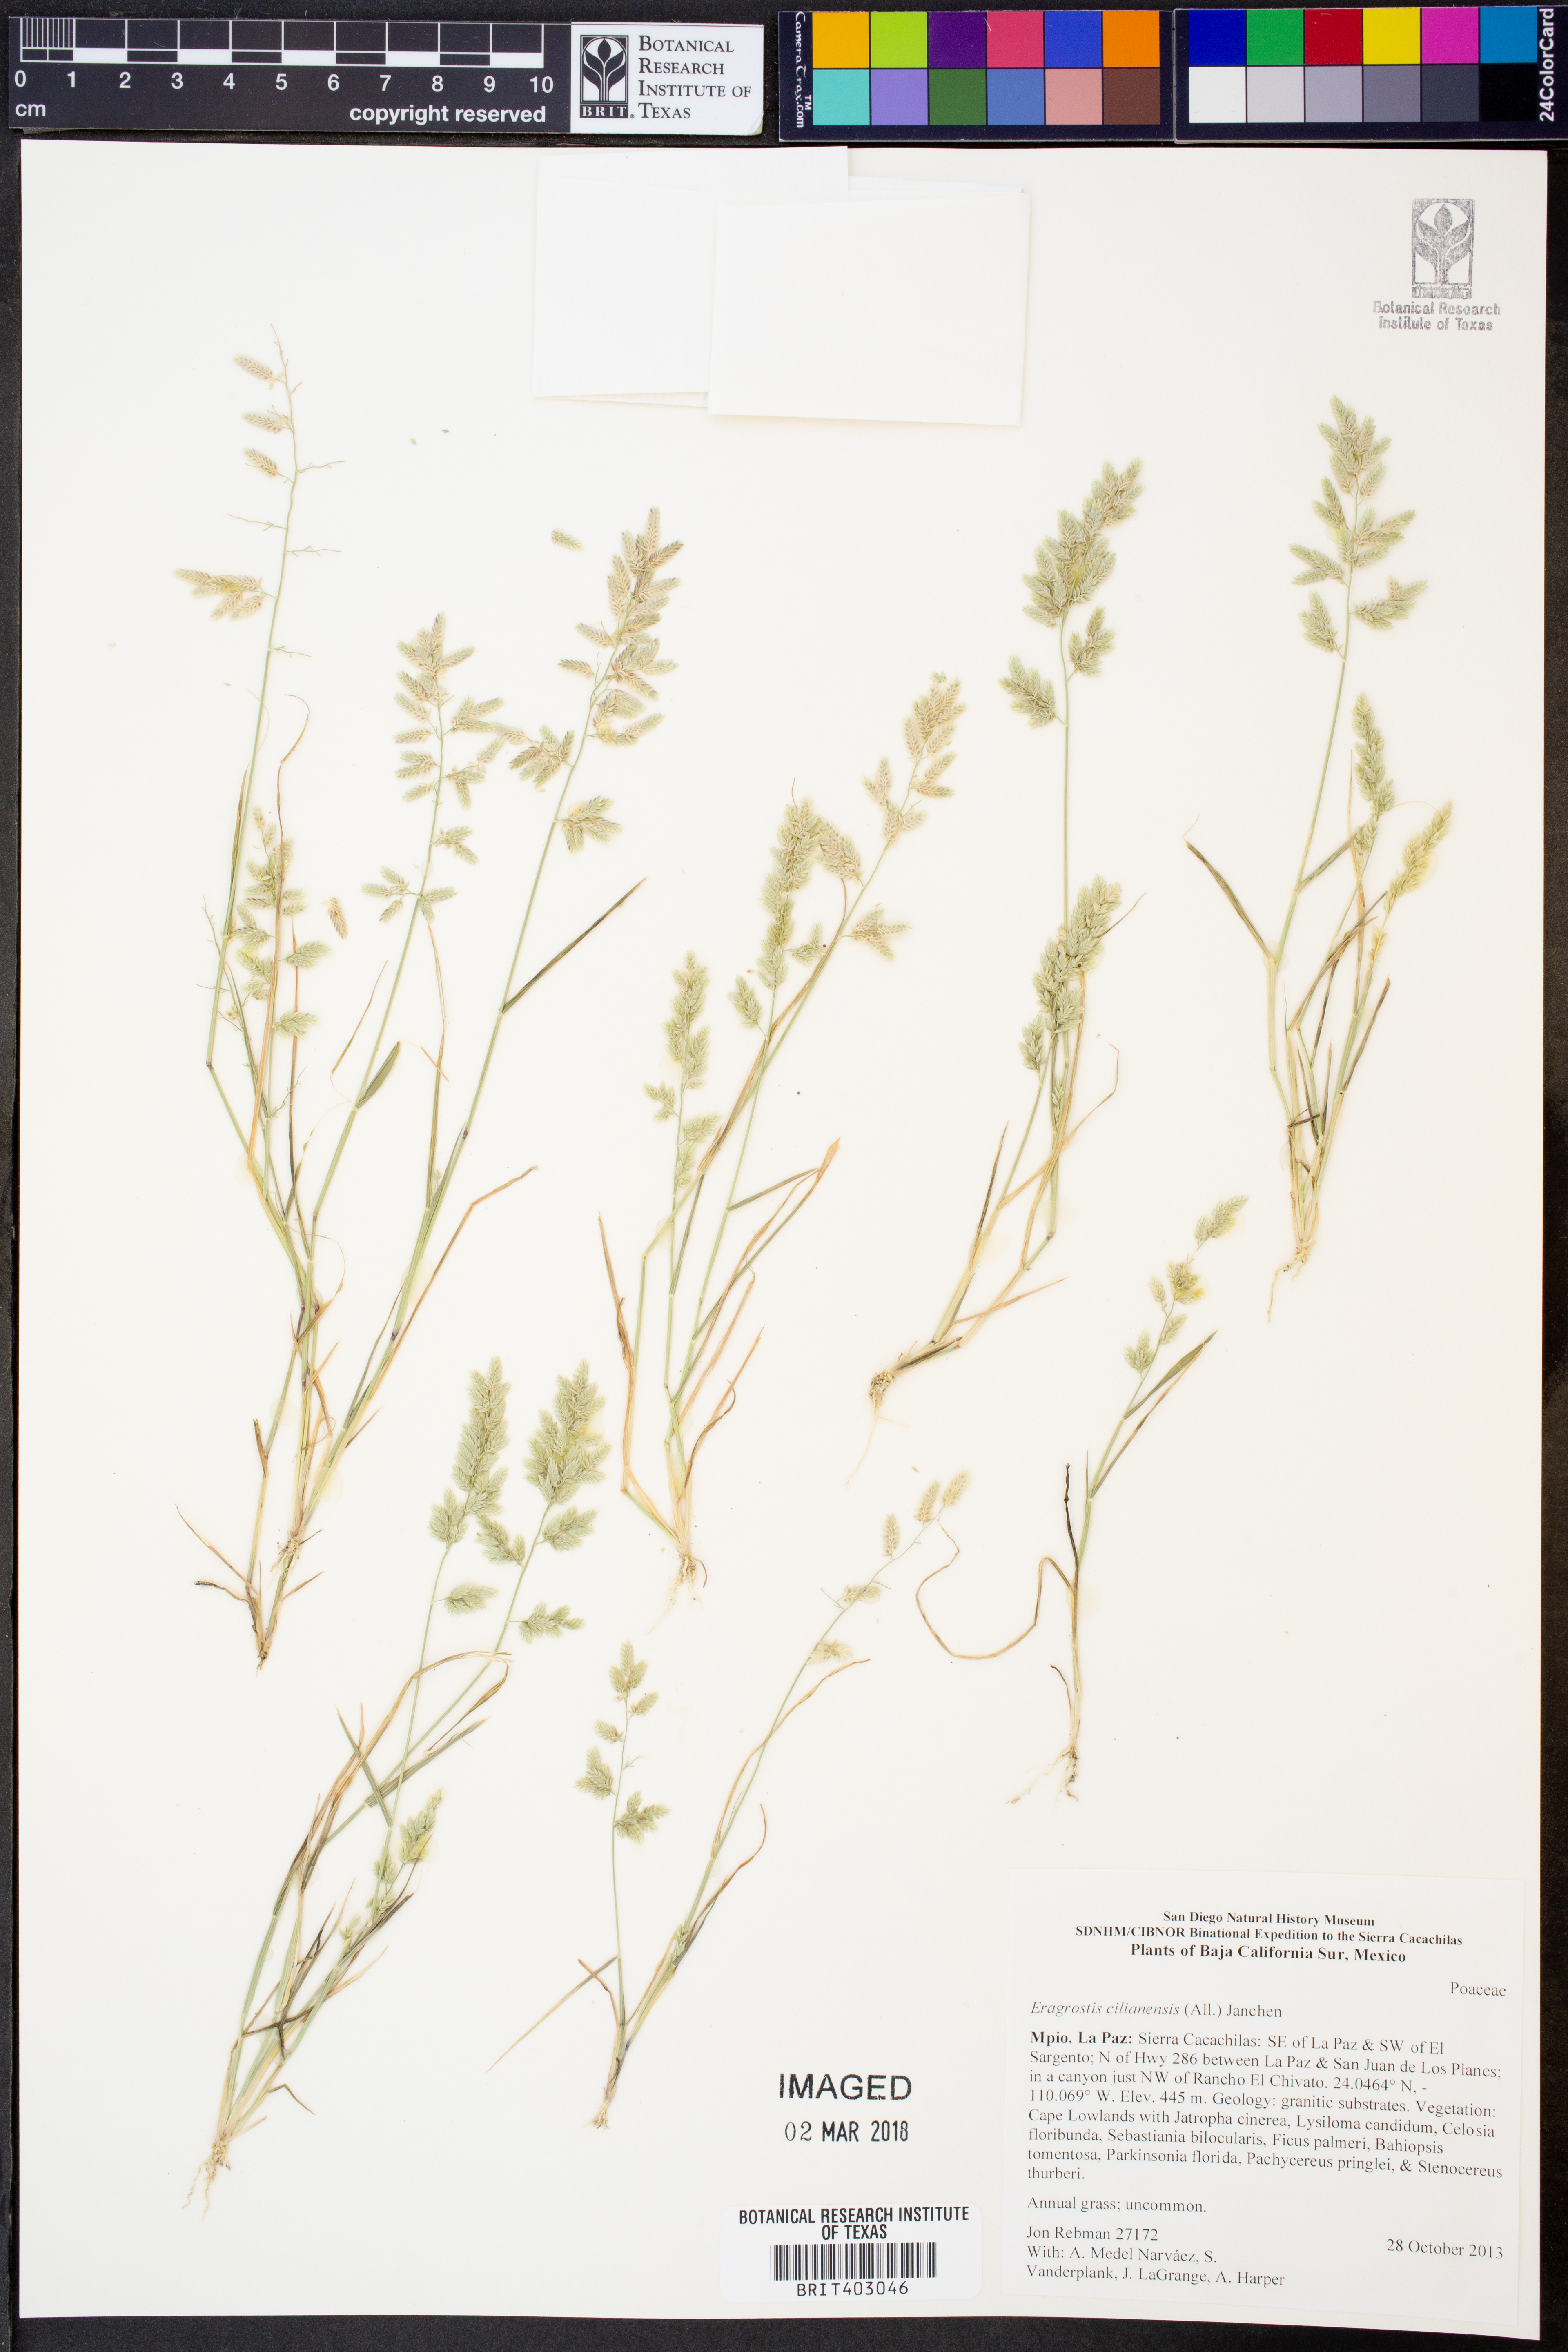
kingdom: Plantae
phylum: Tracheophyta
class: Liliopsida
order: Poales
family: Poaceae
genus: Eragrostis
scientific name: Eragrostis cilianensis
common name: Stinkgrass
